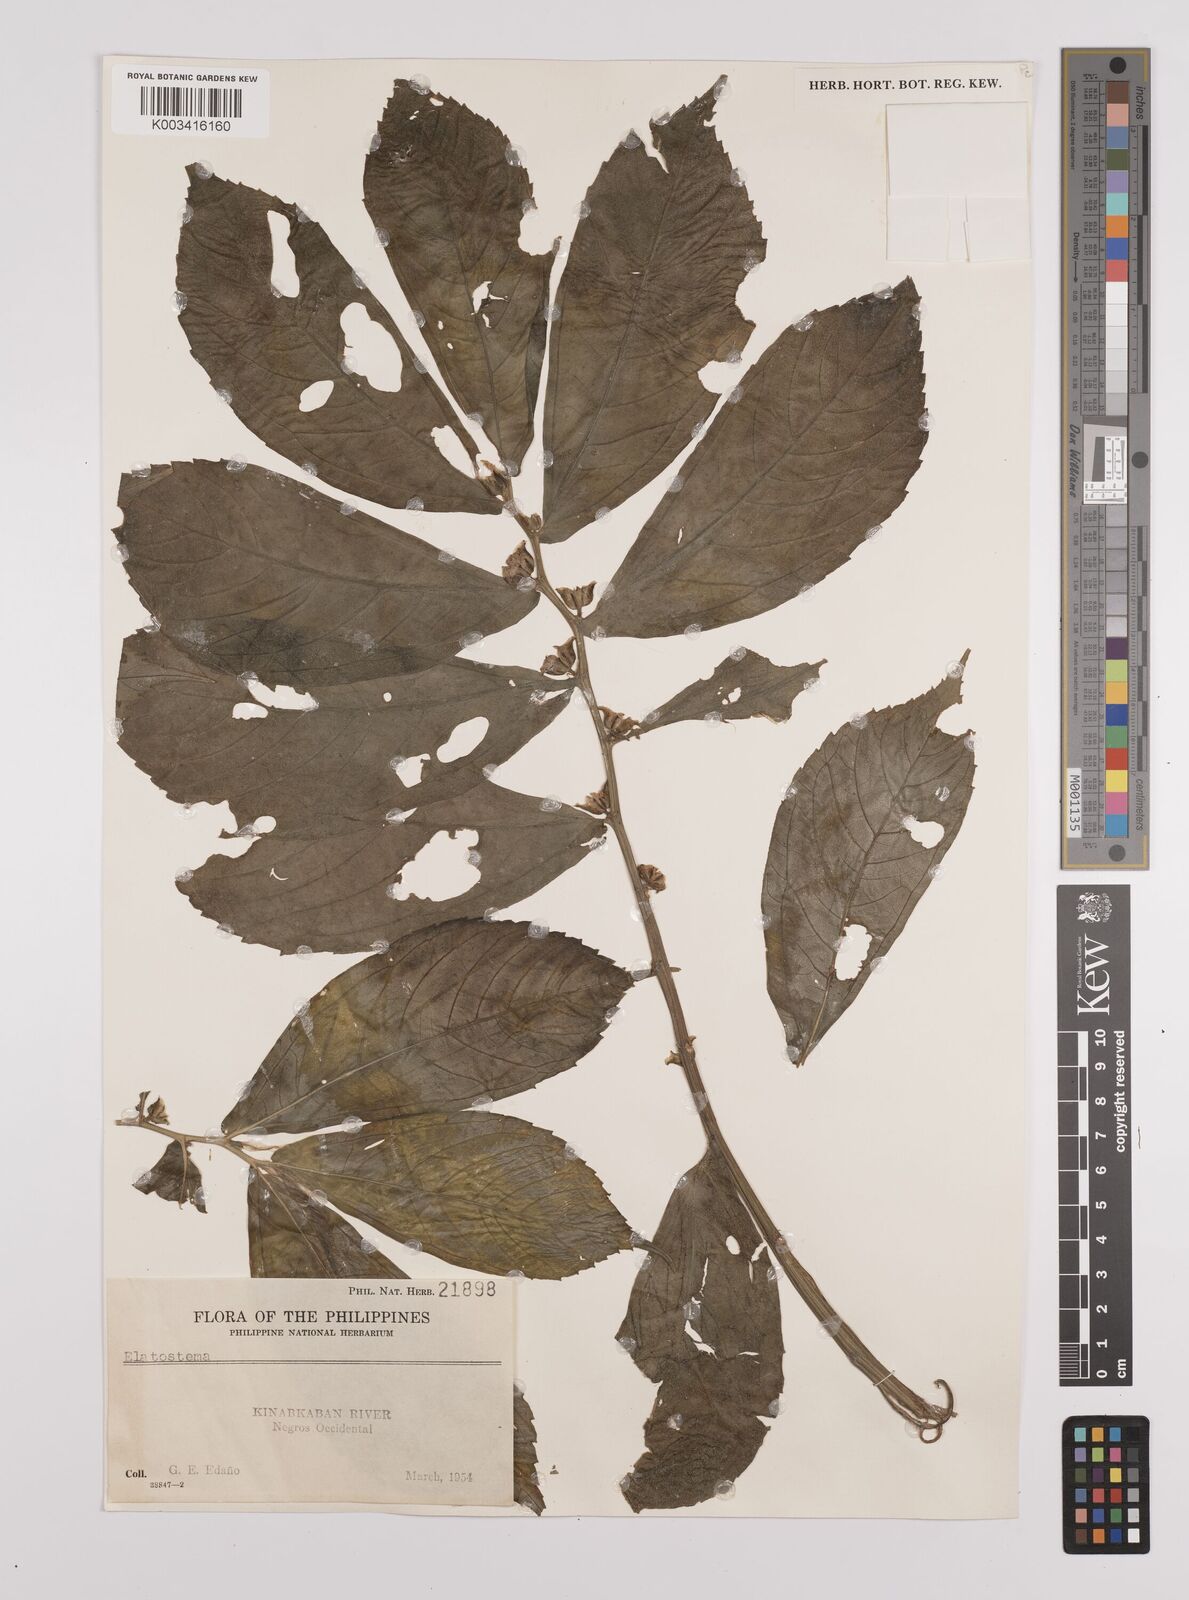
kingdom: Plantae
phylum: Tracheophyta
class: Magnoliopsida
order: Rosales
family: Urticaceae
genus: Elatostema
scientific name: Elatostema
